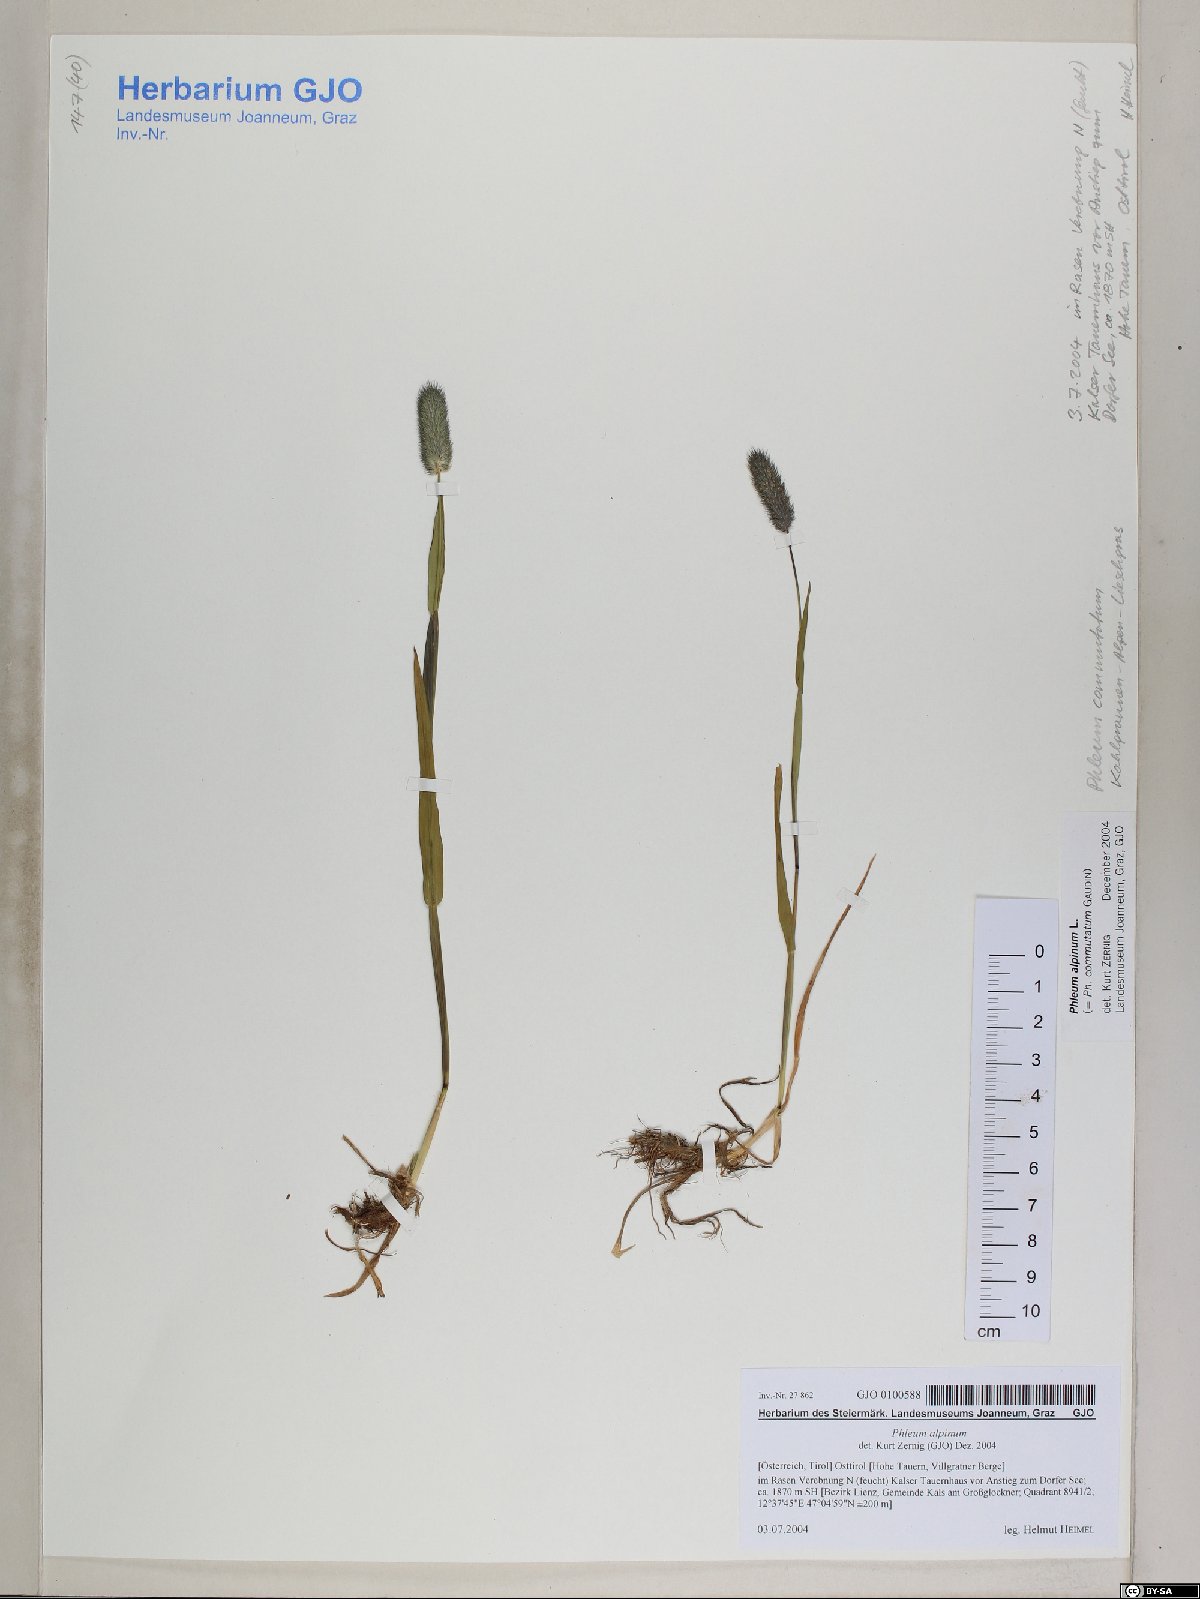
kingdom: Plantae
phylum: Tracheophyta
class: Liliopsida
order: Poales
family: Poaceae
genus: Phleum
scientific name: Phleum alpinum
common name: Alpine cat's-tail
